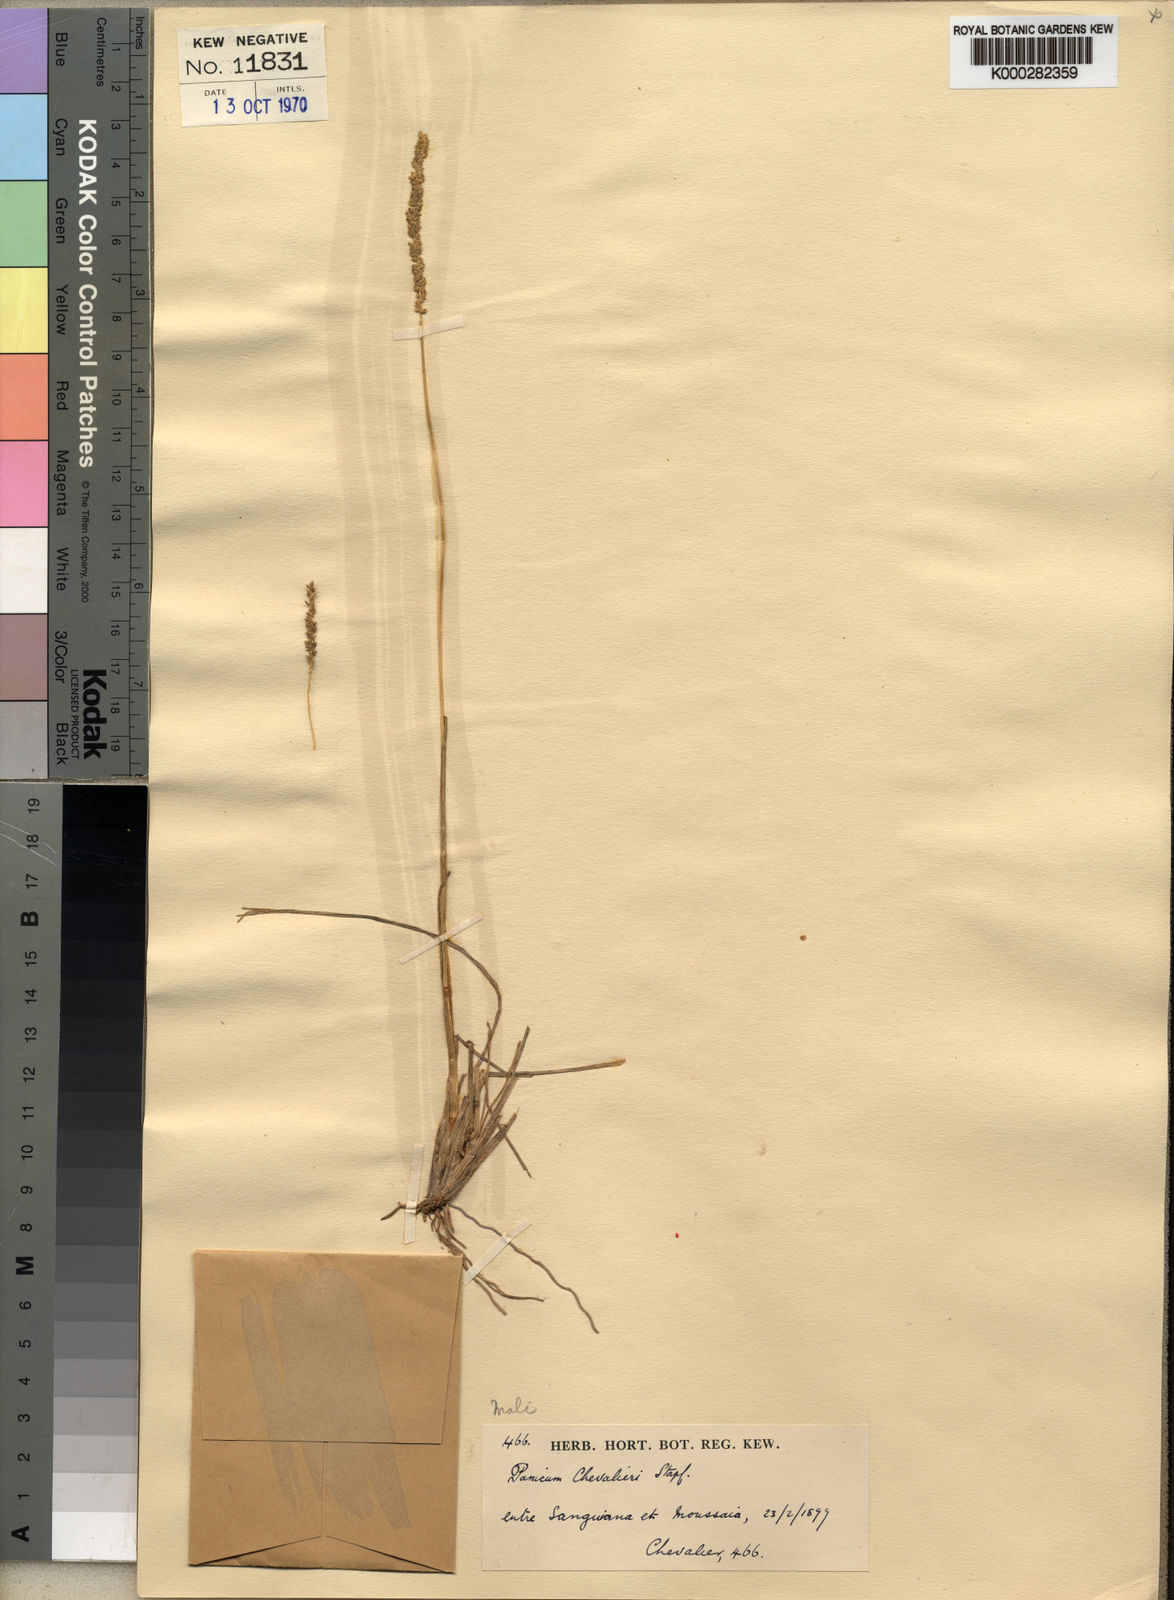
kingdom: Plantae
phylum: Tracheophyta
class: Liliopsida
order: Poales
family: Poaceae
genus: Sacciolepis
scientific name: Sacciolepis chevalieri
